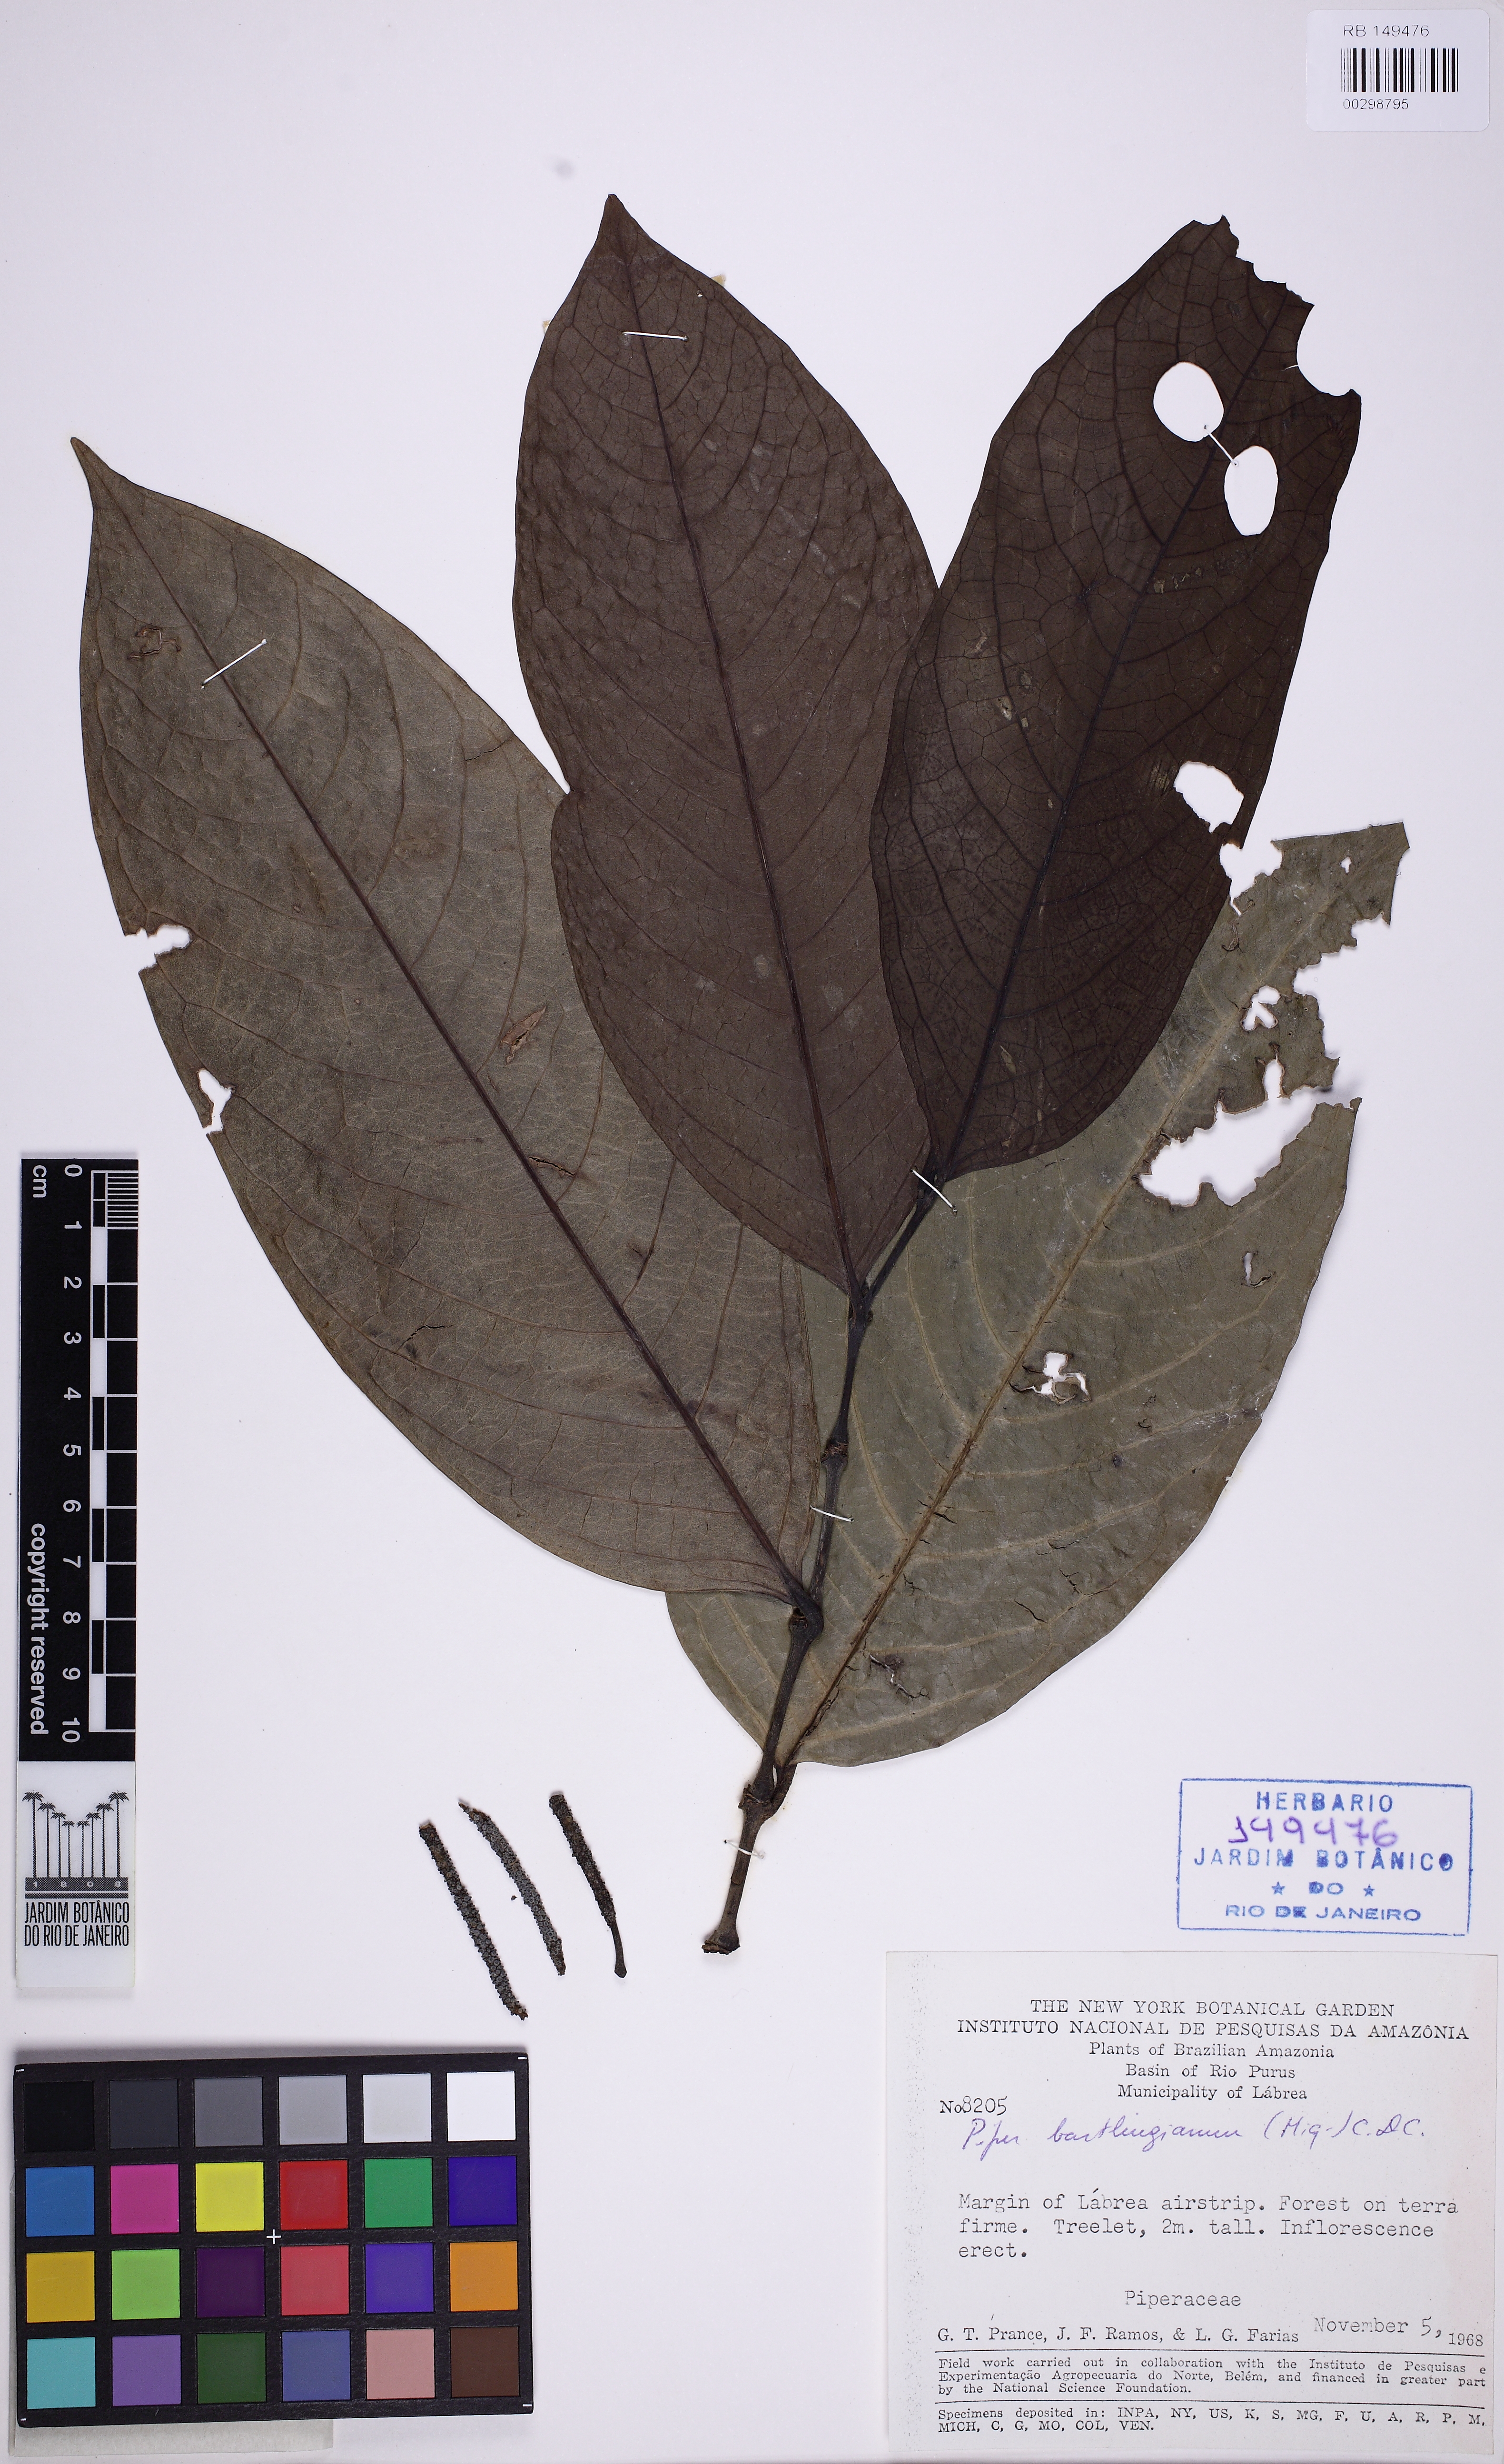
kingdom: Plantae
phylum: Tracheophyta
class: Magnoliopsida
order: Piperales
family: Piperaceae
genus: Piper
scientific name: Piper bartlingianum
